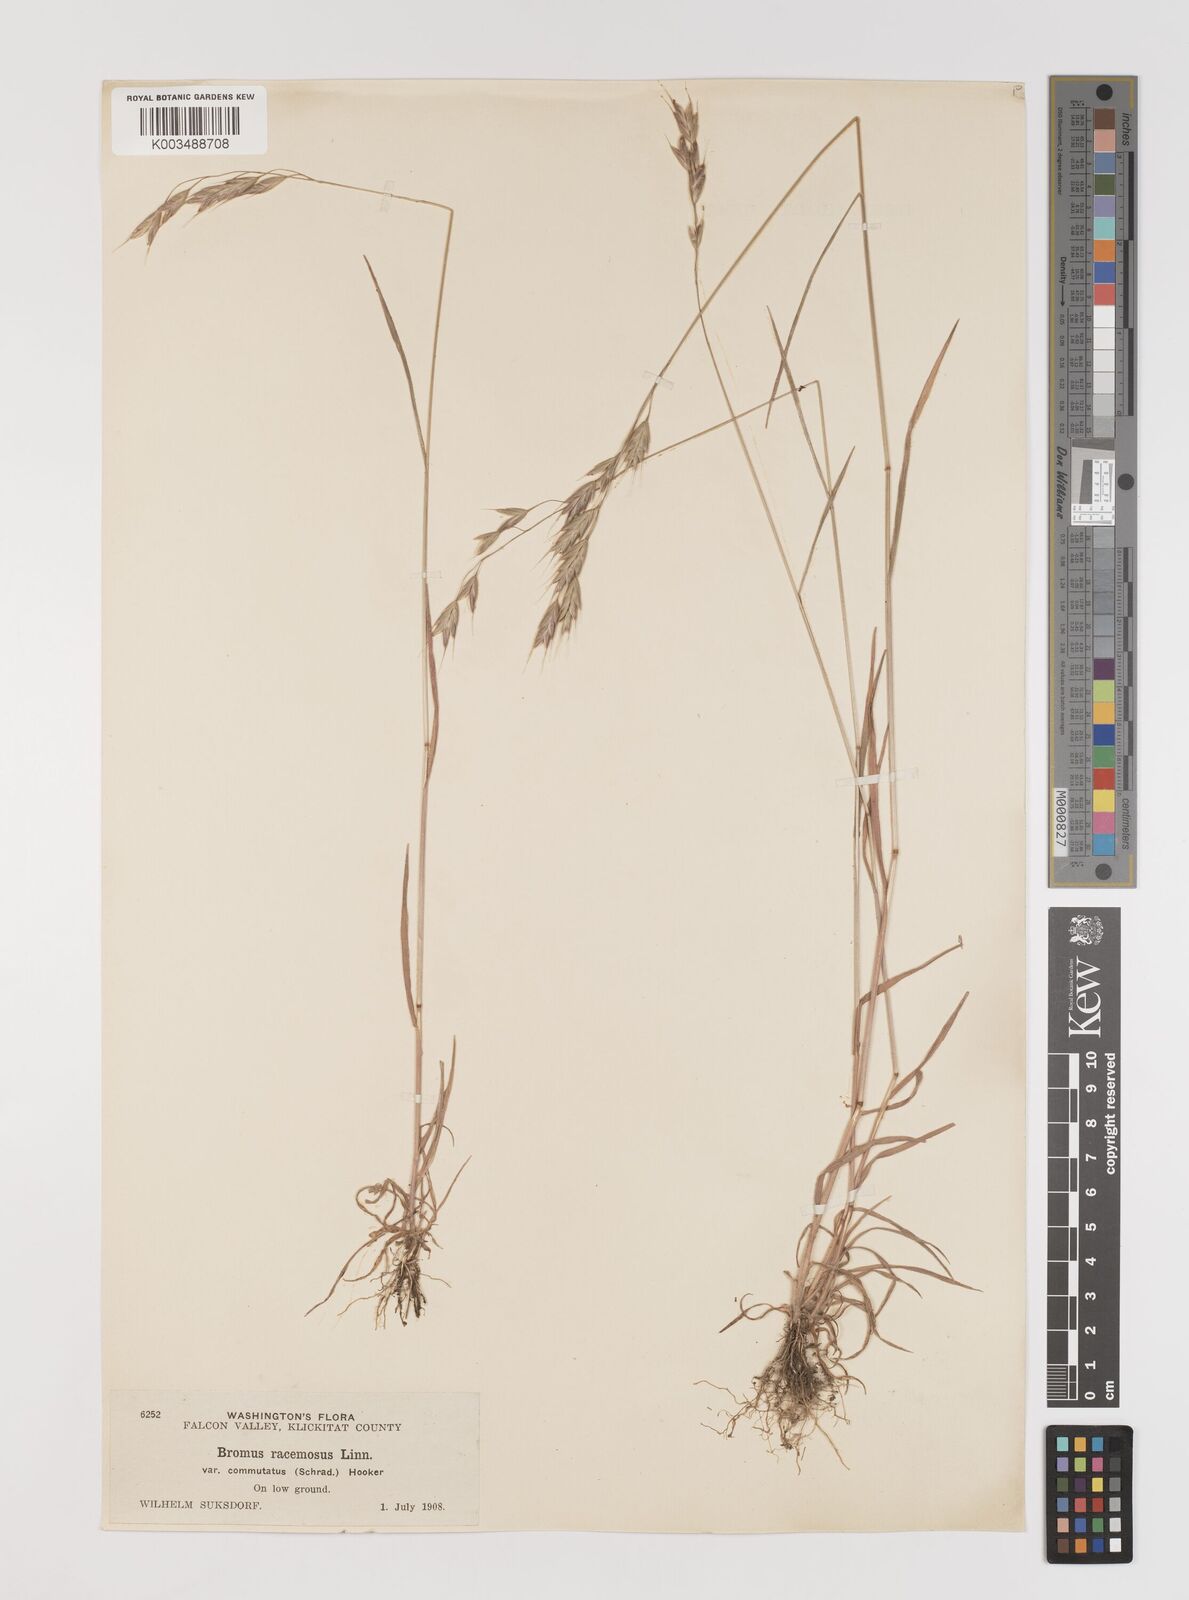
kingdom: Plantae
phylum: Tracheophyta
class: Liliopsida
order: Poales
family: Poaceae
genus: Bromus
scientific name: Bromus racemosus
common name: Bald brome
